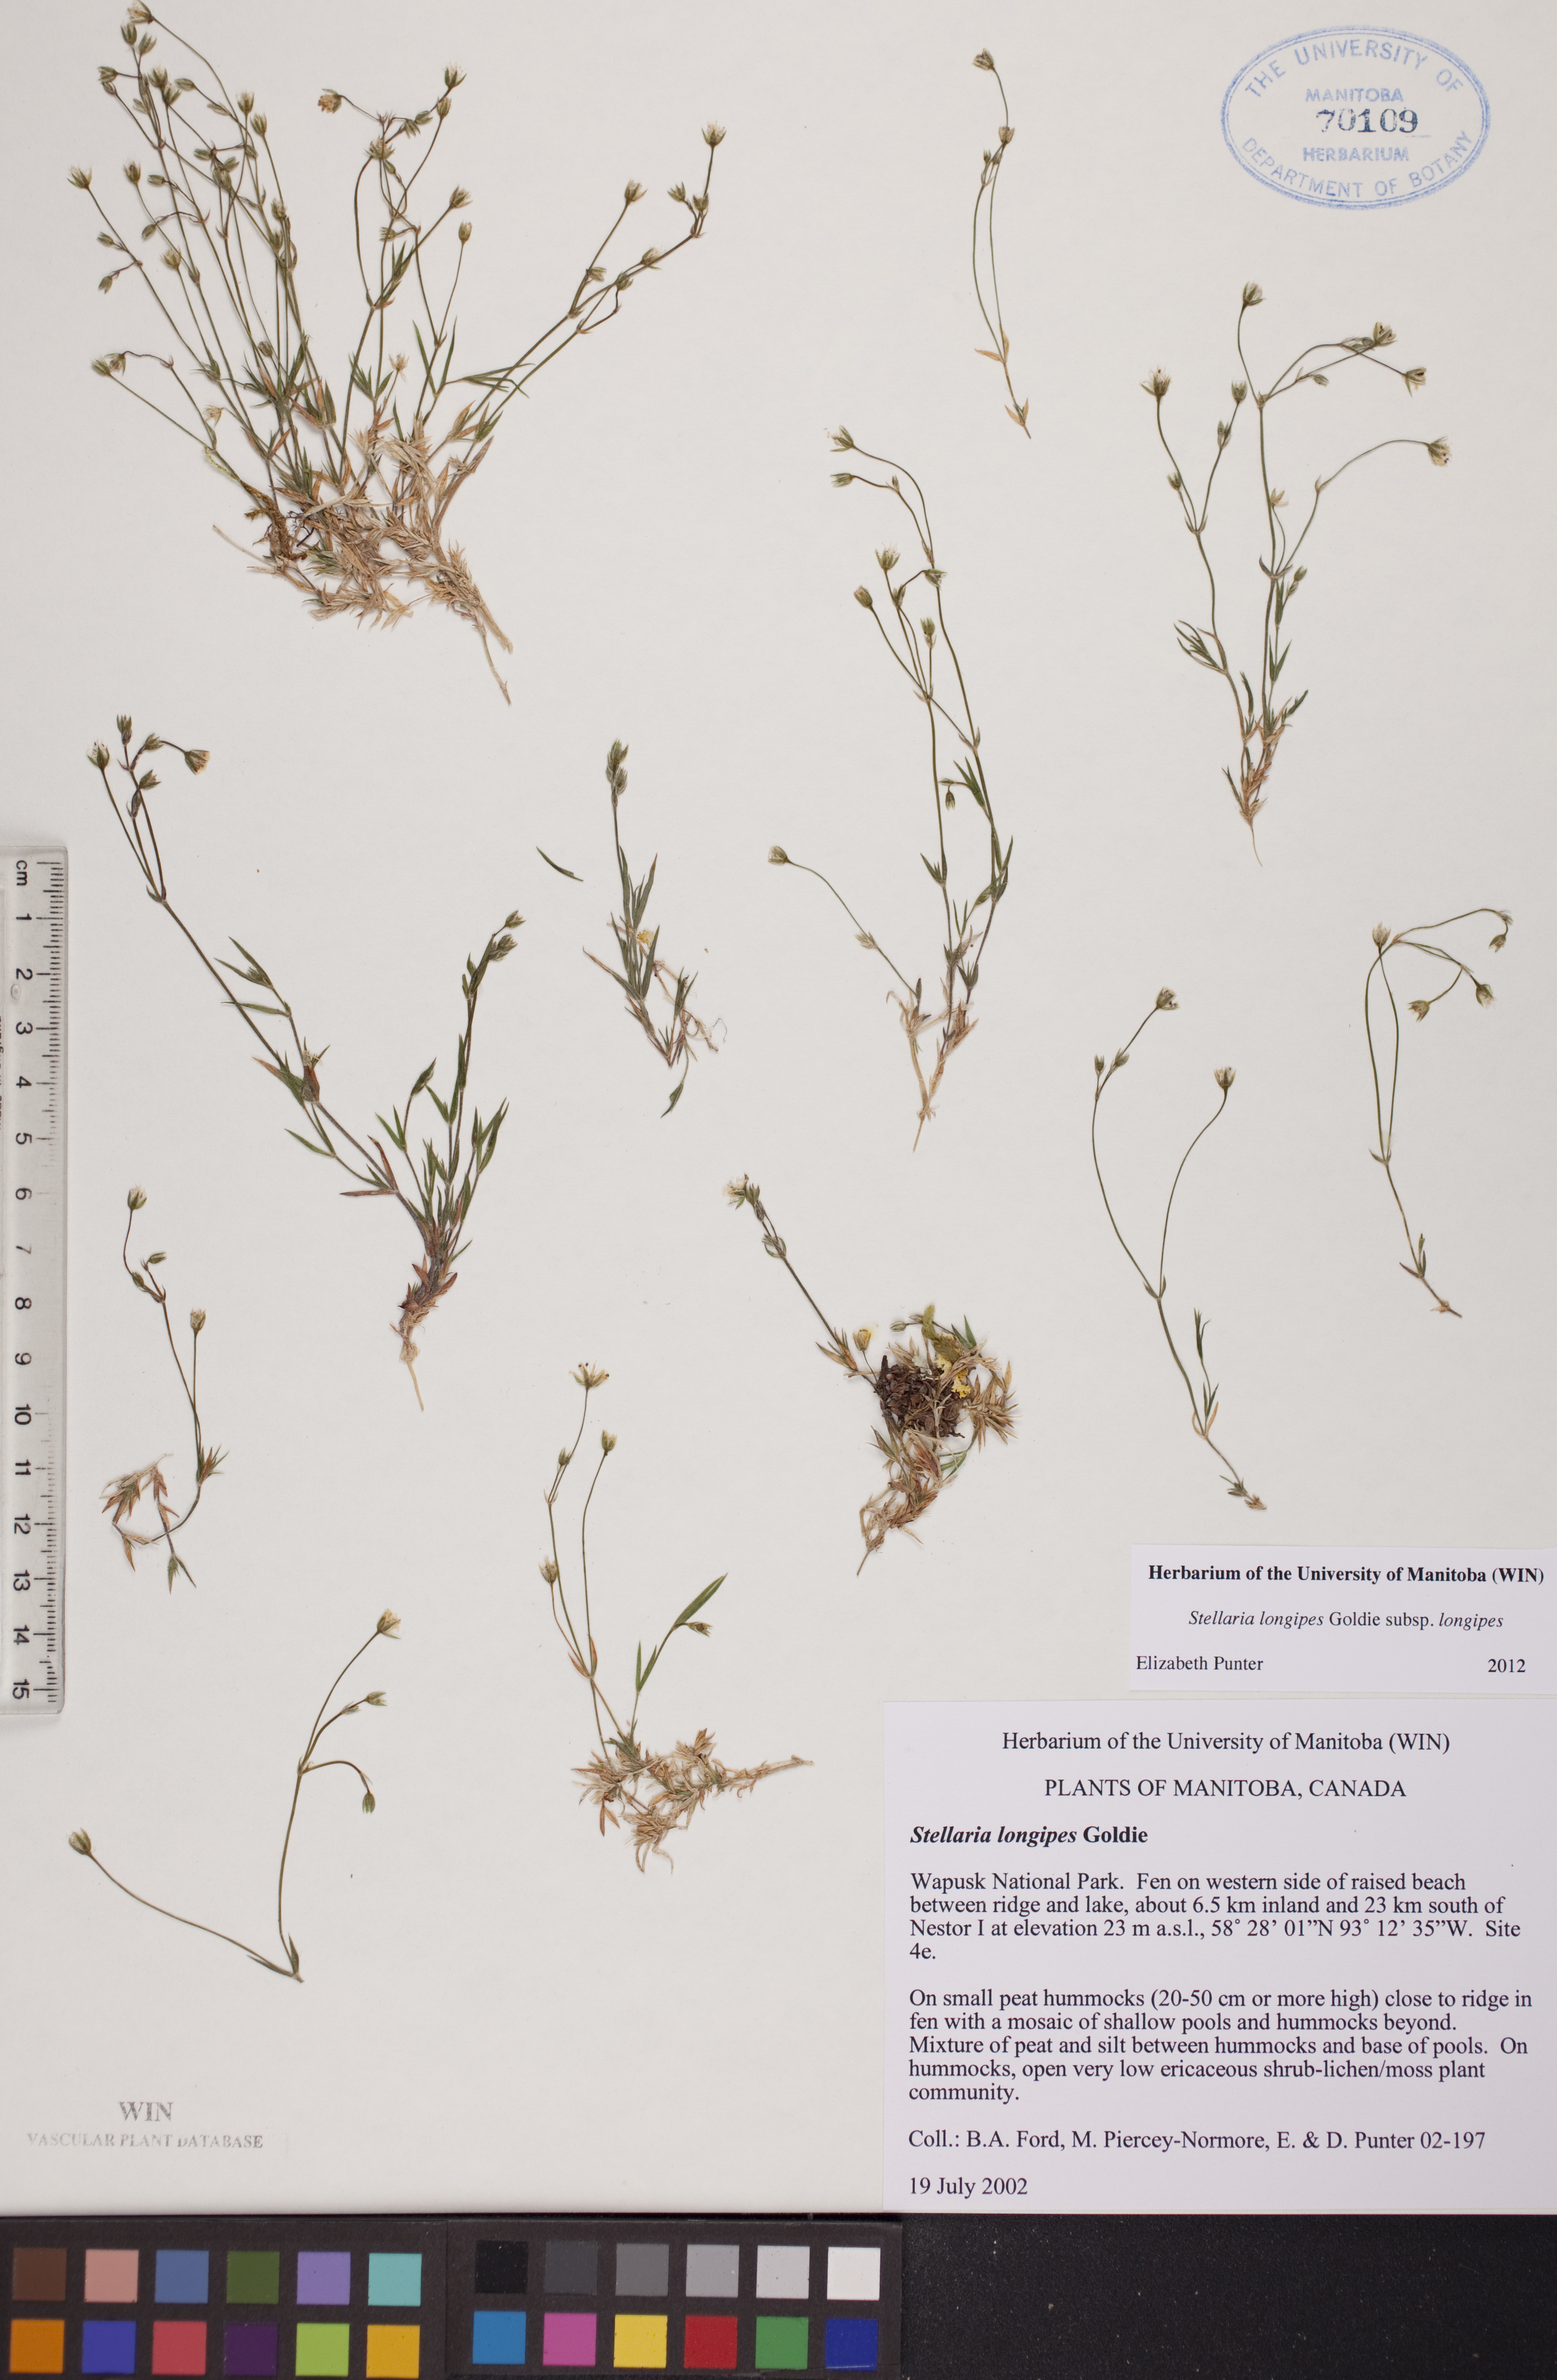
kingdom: Plantae
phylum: Tracheophyta
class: Magnoliopsida
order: Caryophyllales
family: Caryophyllaceae
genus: Stellaria
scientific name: Stellaria longipes
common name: Goldie's starwort
